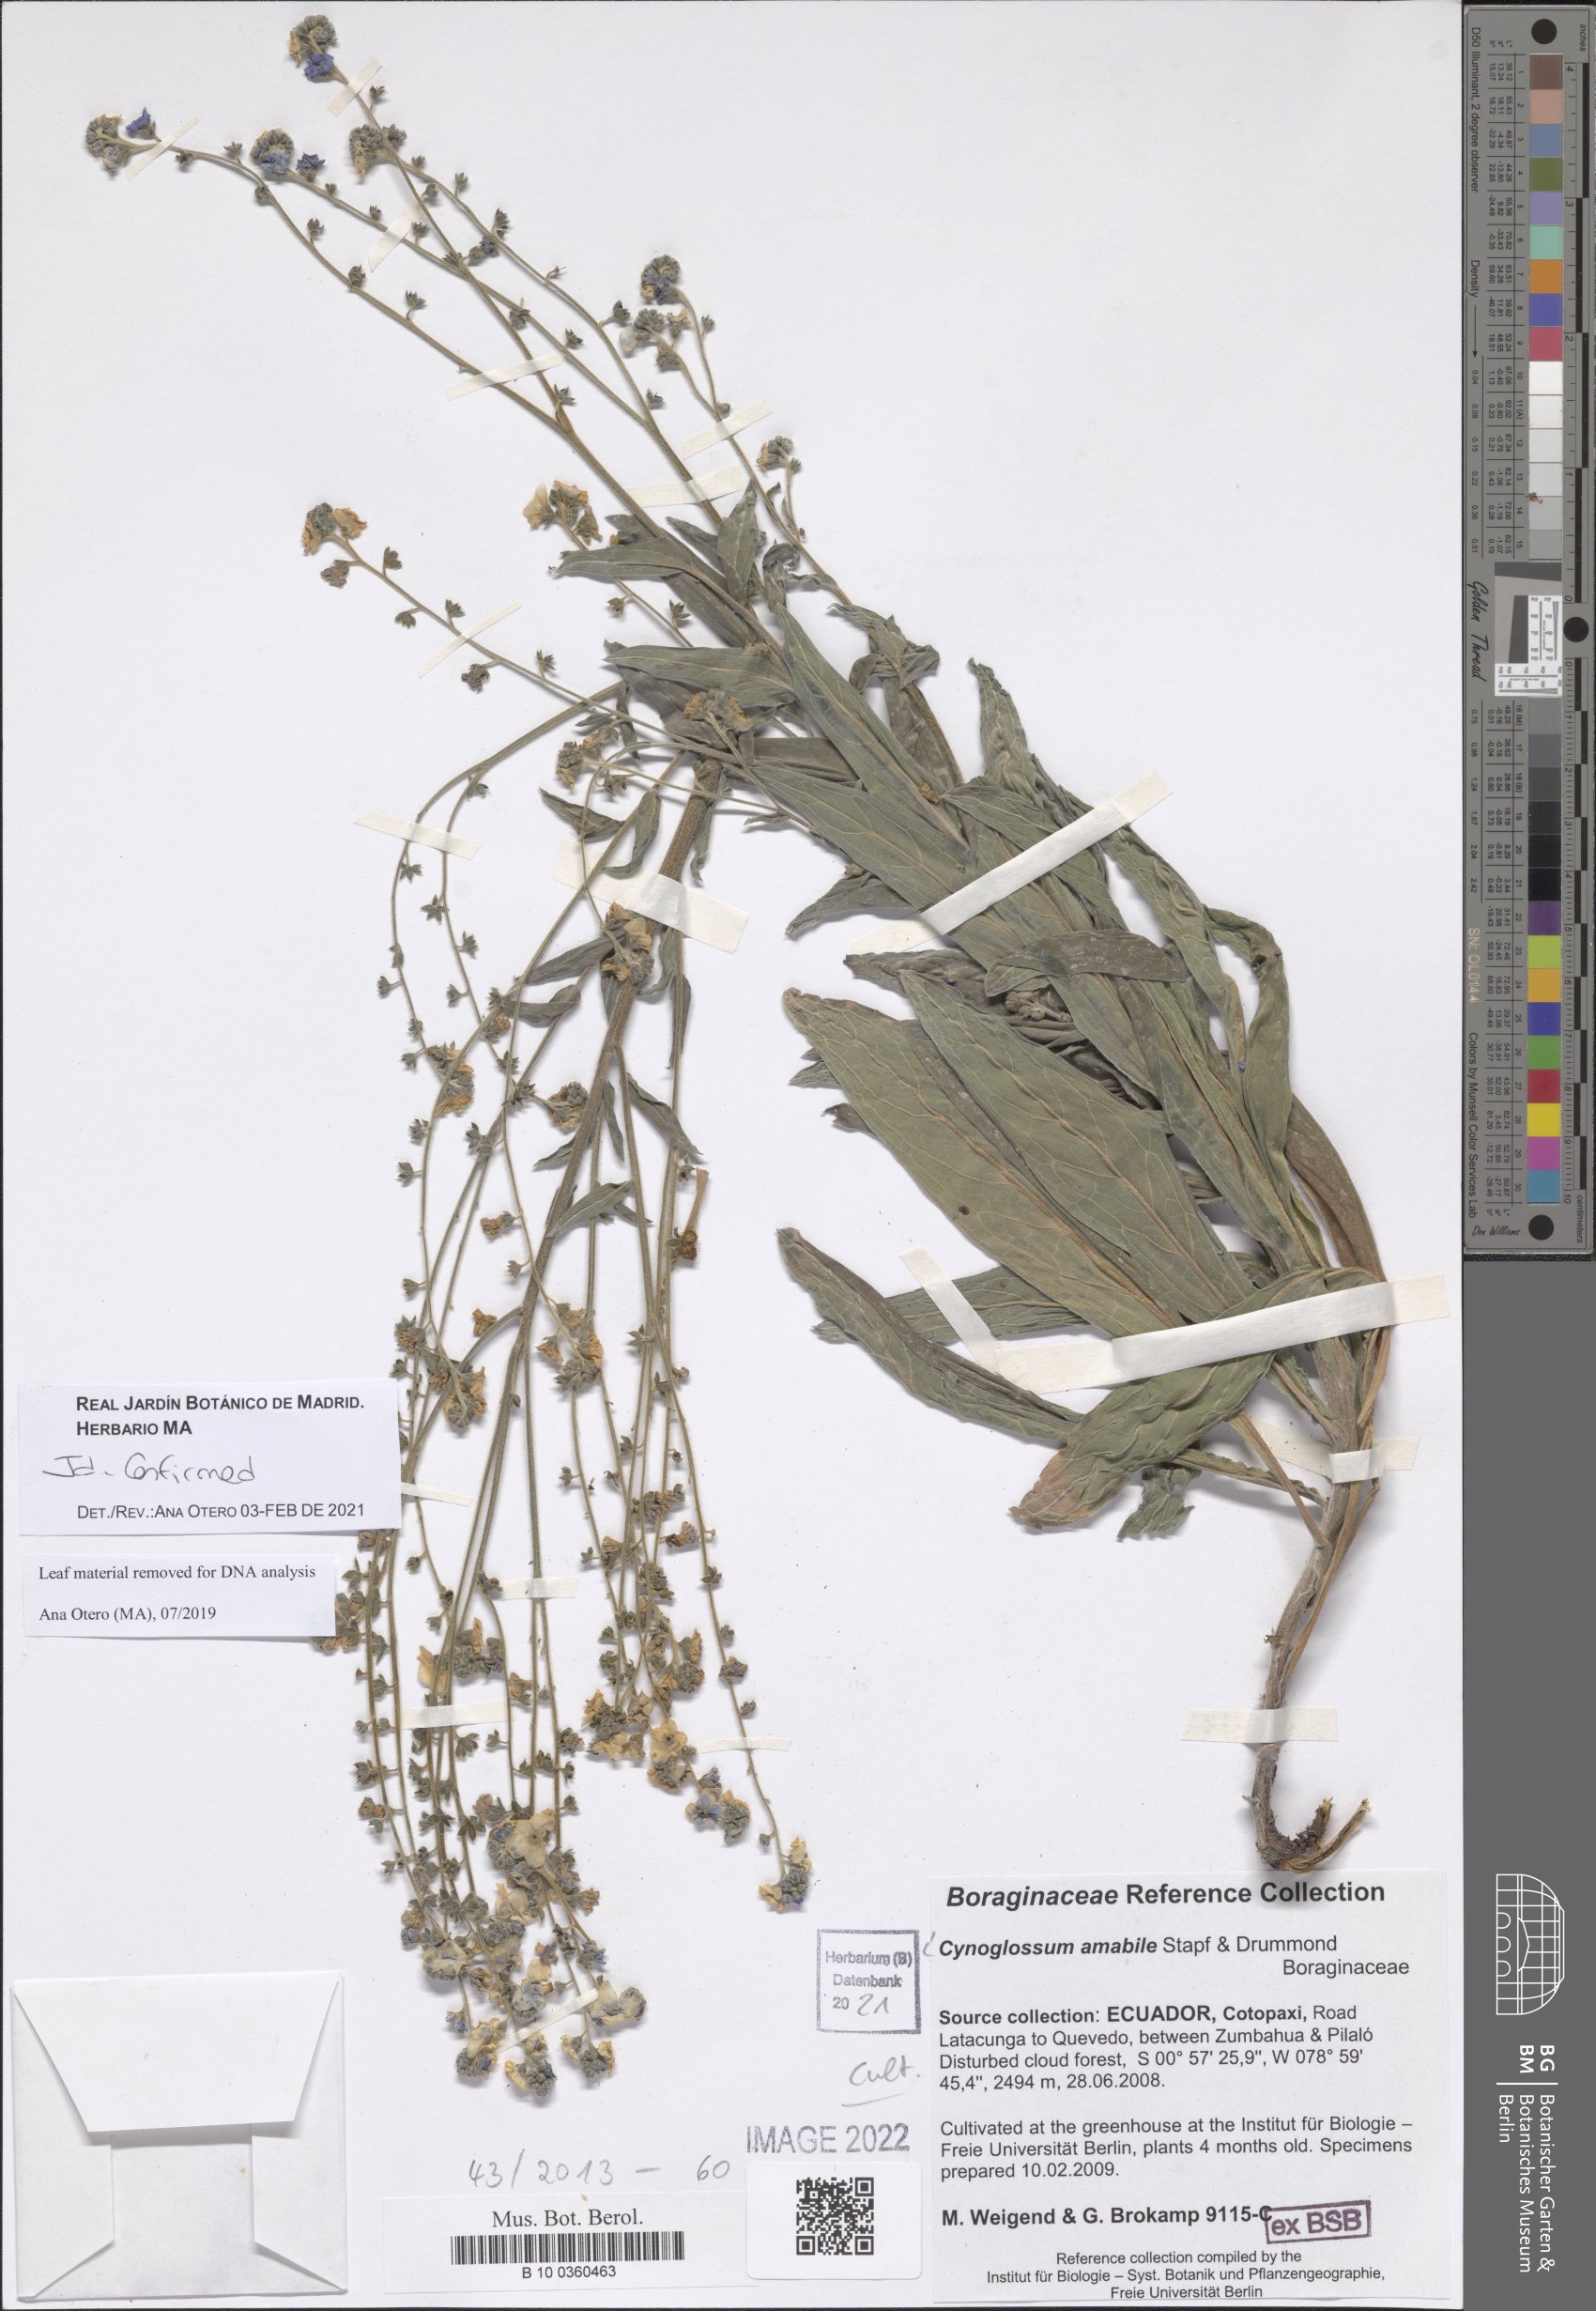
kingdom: Plantae
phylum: Tracheophyta
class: Magnoliopsida
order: Boraginales
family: Boraginaceae
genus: Cynoglossum
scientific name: Cynoglossum amabile
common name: Chinese hound's tongue
